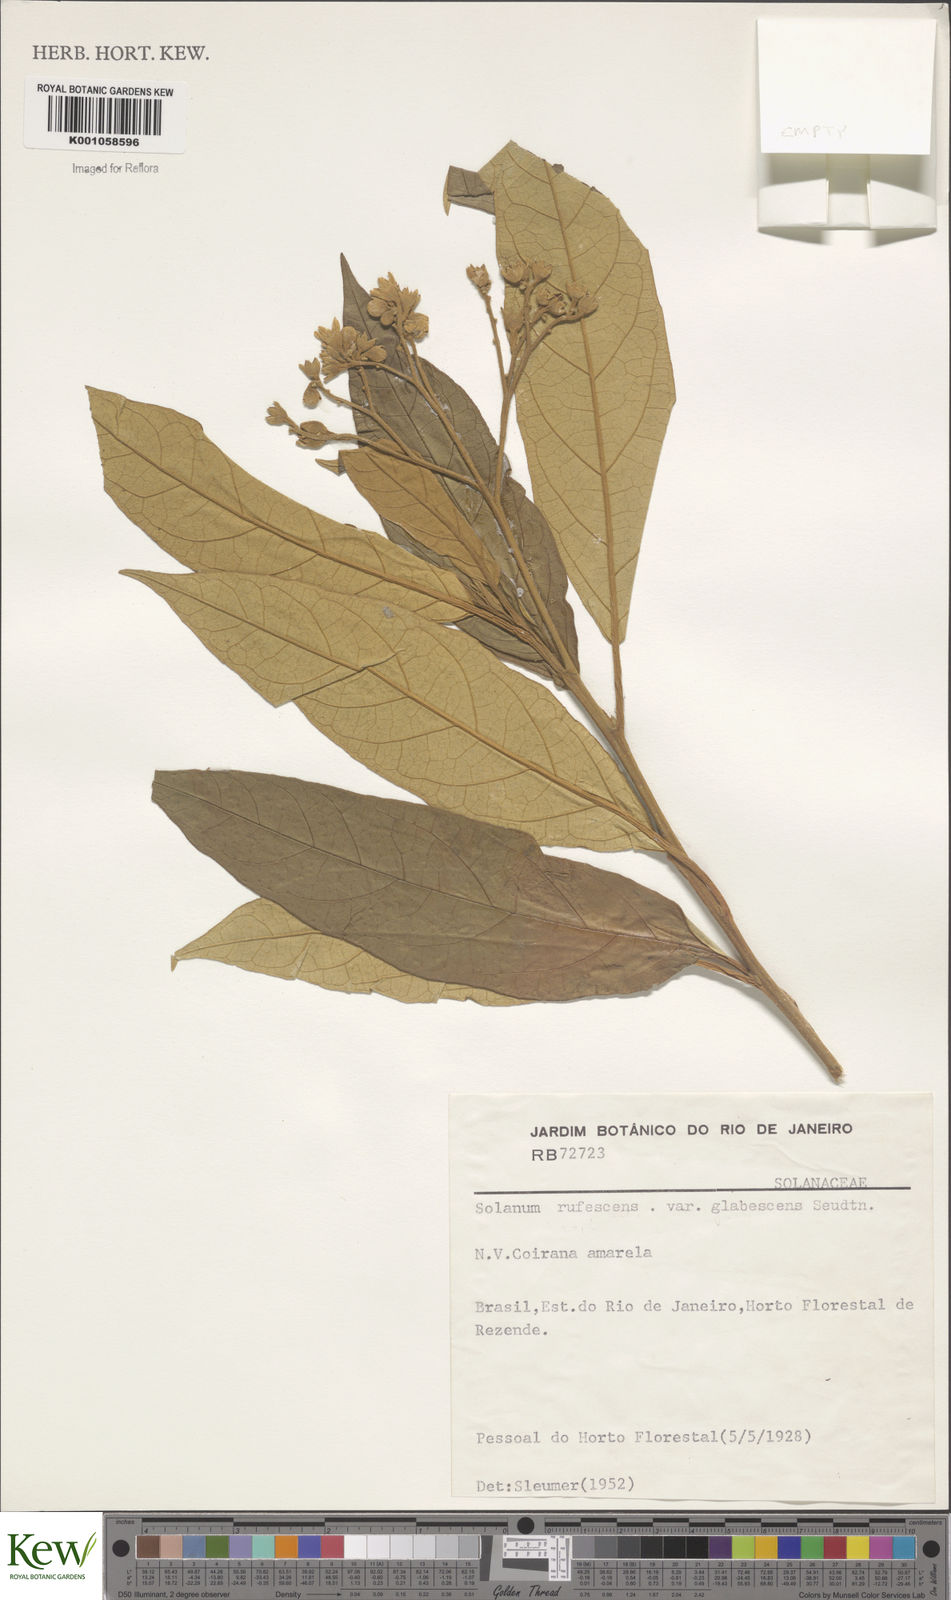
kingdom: Plantae
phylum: Tracheophyta
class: Magnoliopsida
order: Solanales
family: Solanaceae
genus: Solanum
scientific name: Solanum rufescens
